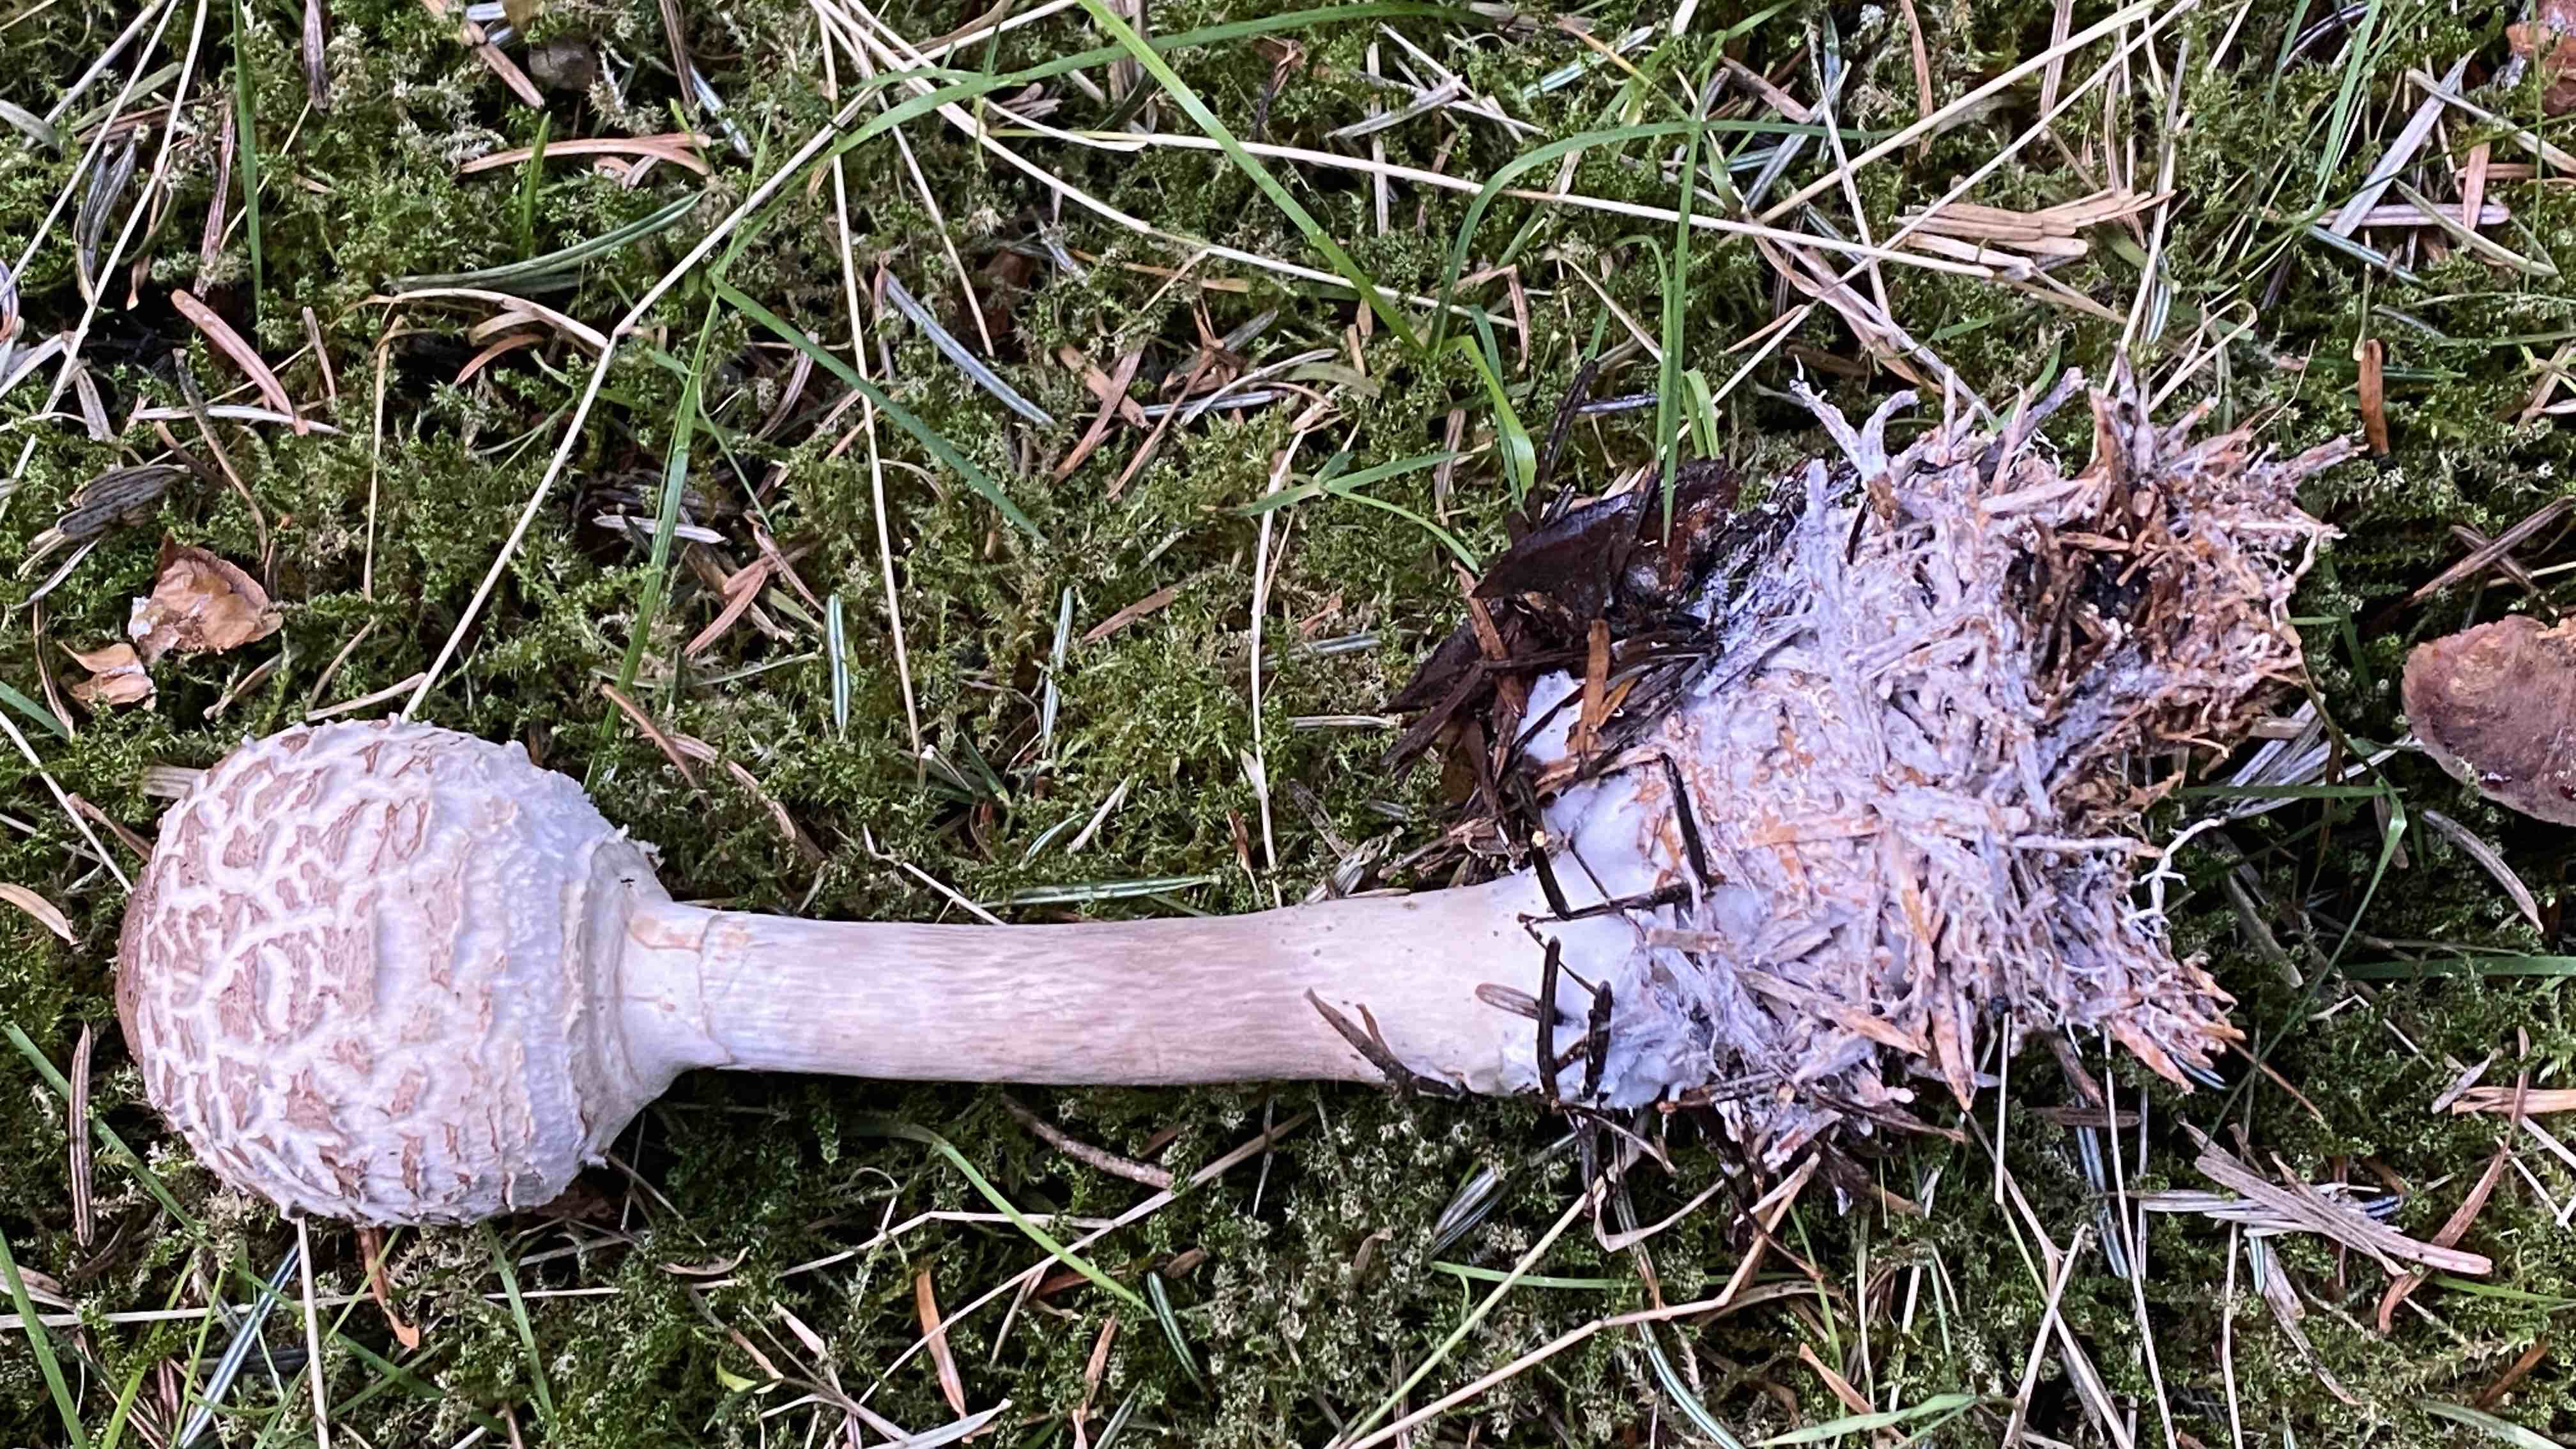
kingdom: Fungi
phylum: Basidiomycota
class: Agaricomycetes
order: Agaricales
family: Agaricaceae
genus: Chlorophyllum
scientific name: Chlorophyllum olivieri
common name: almindelig rabarberhat
